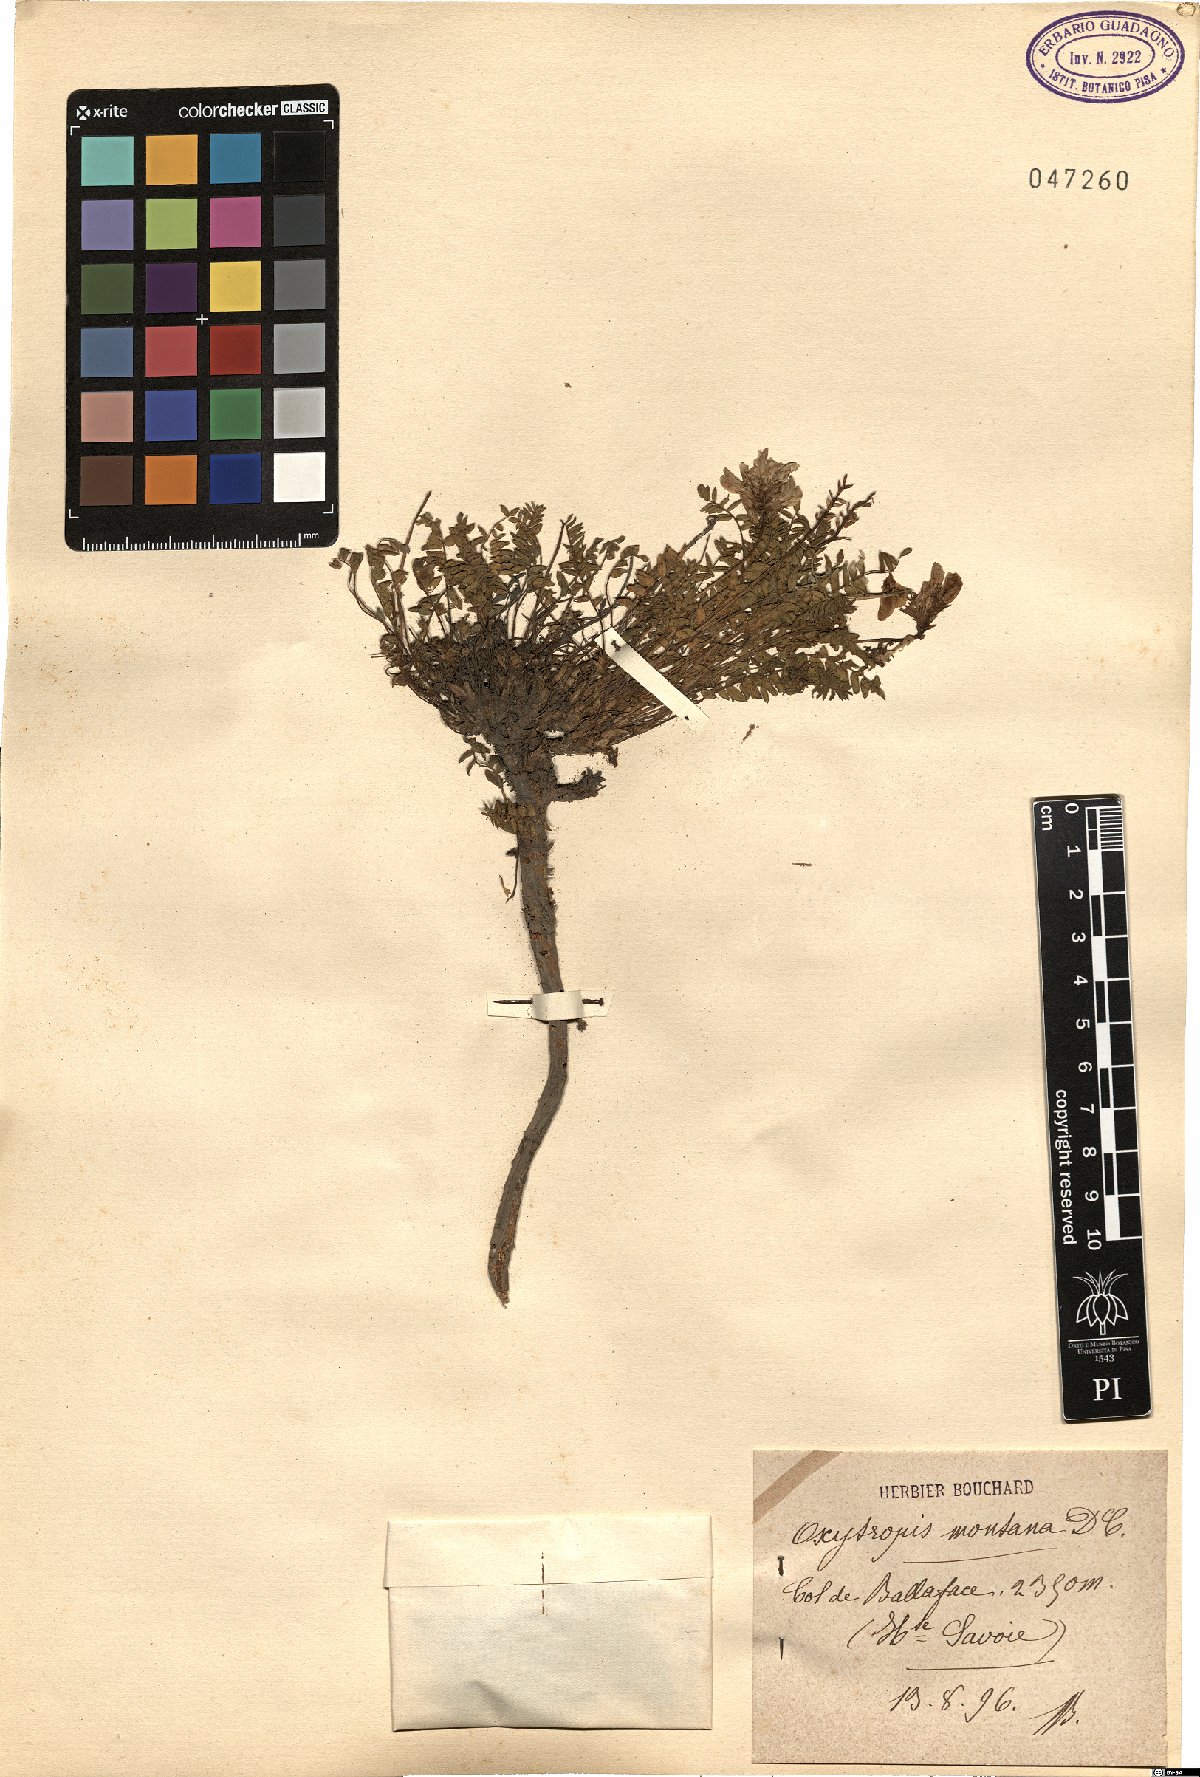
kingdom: Plantae
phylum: Tracheophyta
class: Magnoliopsida
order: Fabales
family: Fabaceae
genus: Oxytropis
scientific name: Oxytropis montana
